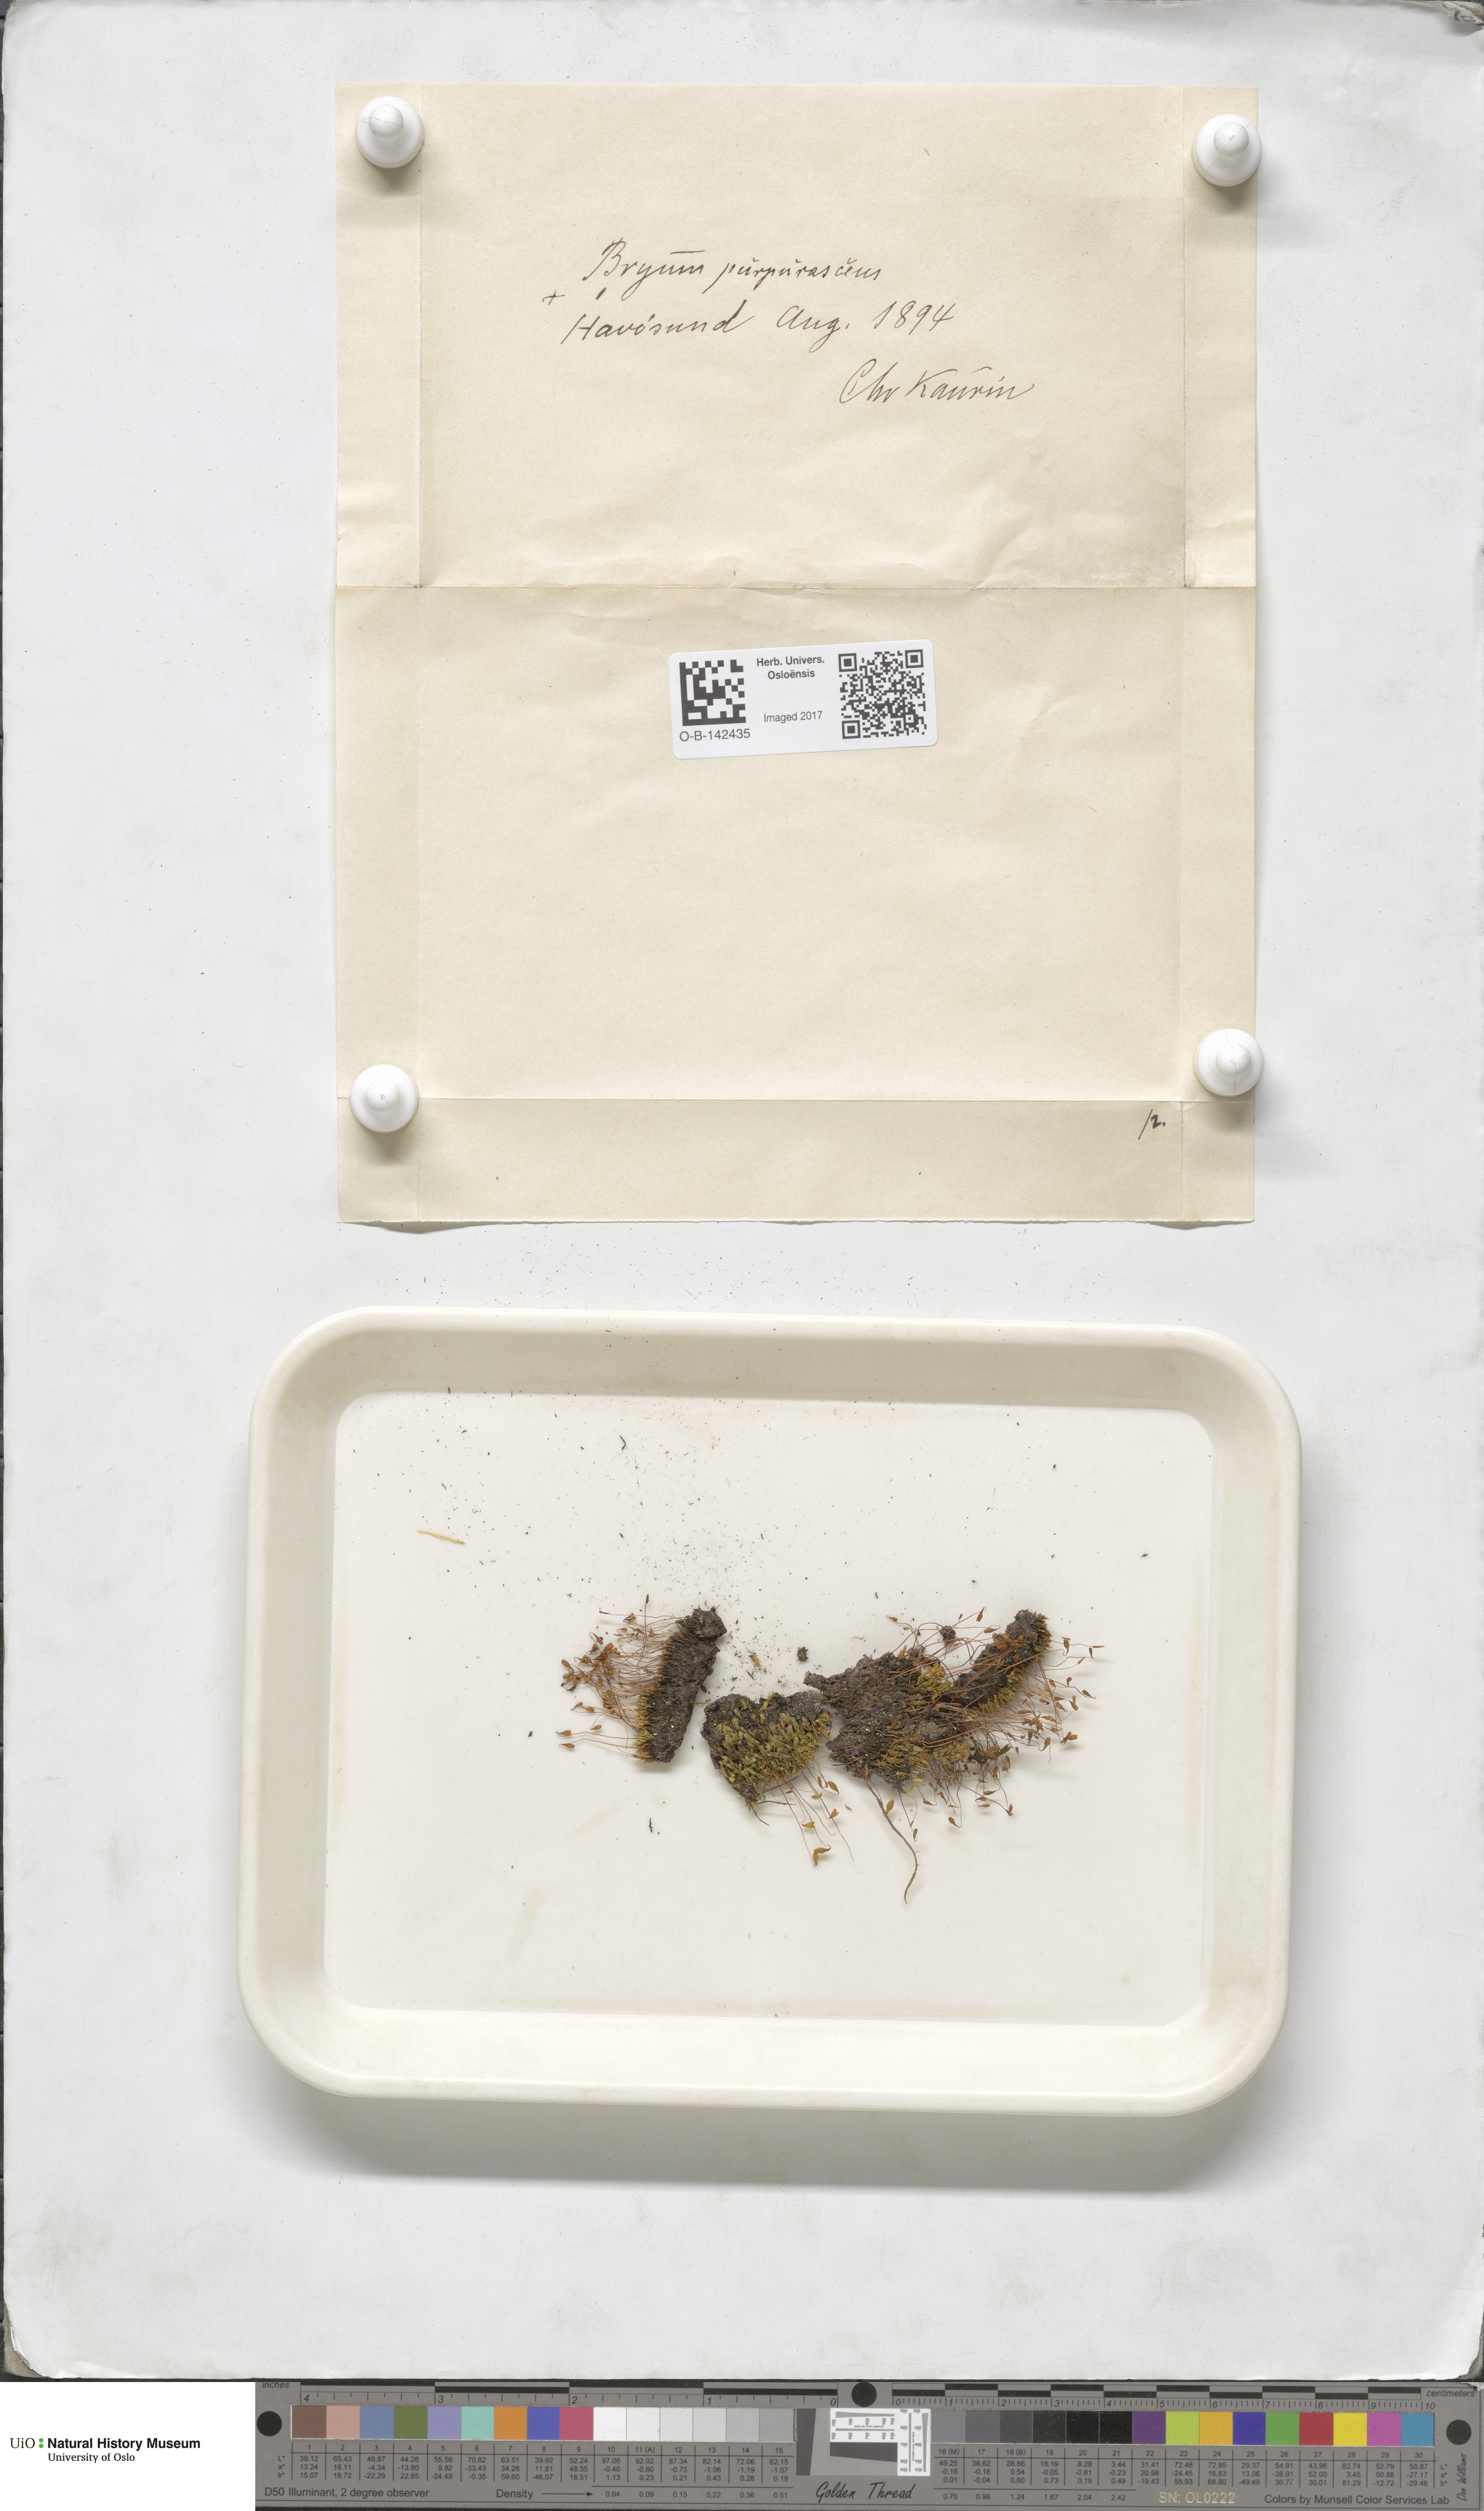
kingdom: Plantae
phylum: Bryophyta
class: Bryopsida
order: Bryales
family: Bryaceae
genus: Ptychostomum
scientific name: Ptychostomum arcticum
